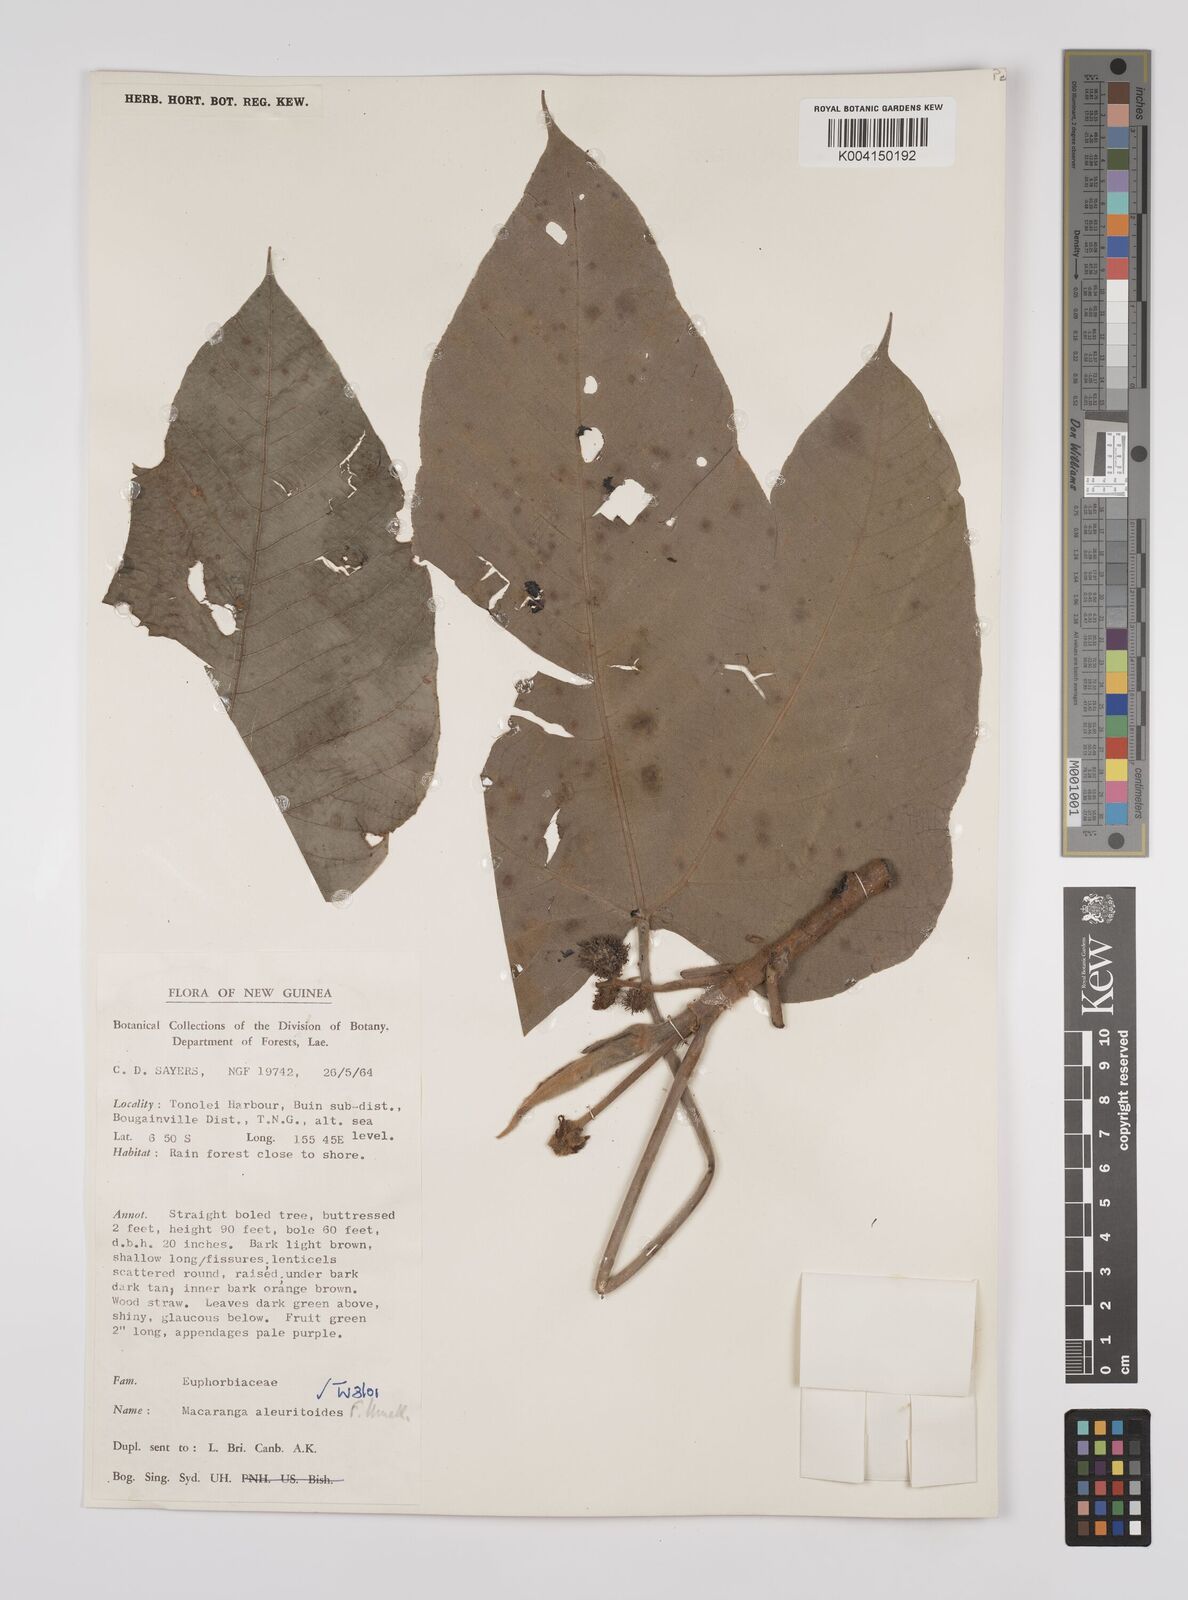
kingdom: Plantae
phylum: Tracheophyta
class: Magnoliopsida
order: Malpighiales
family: Euphorbiaceae
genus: Macaranga
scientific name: Macaranga aleuritoides
